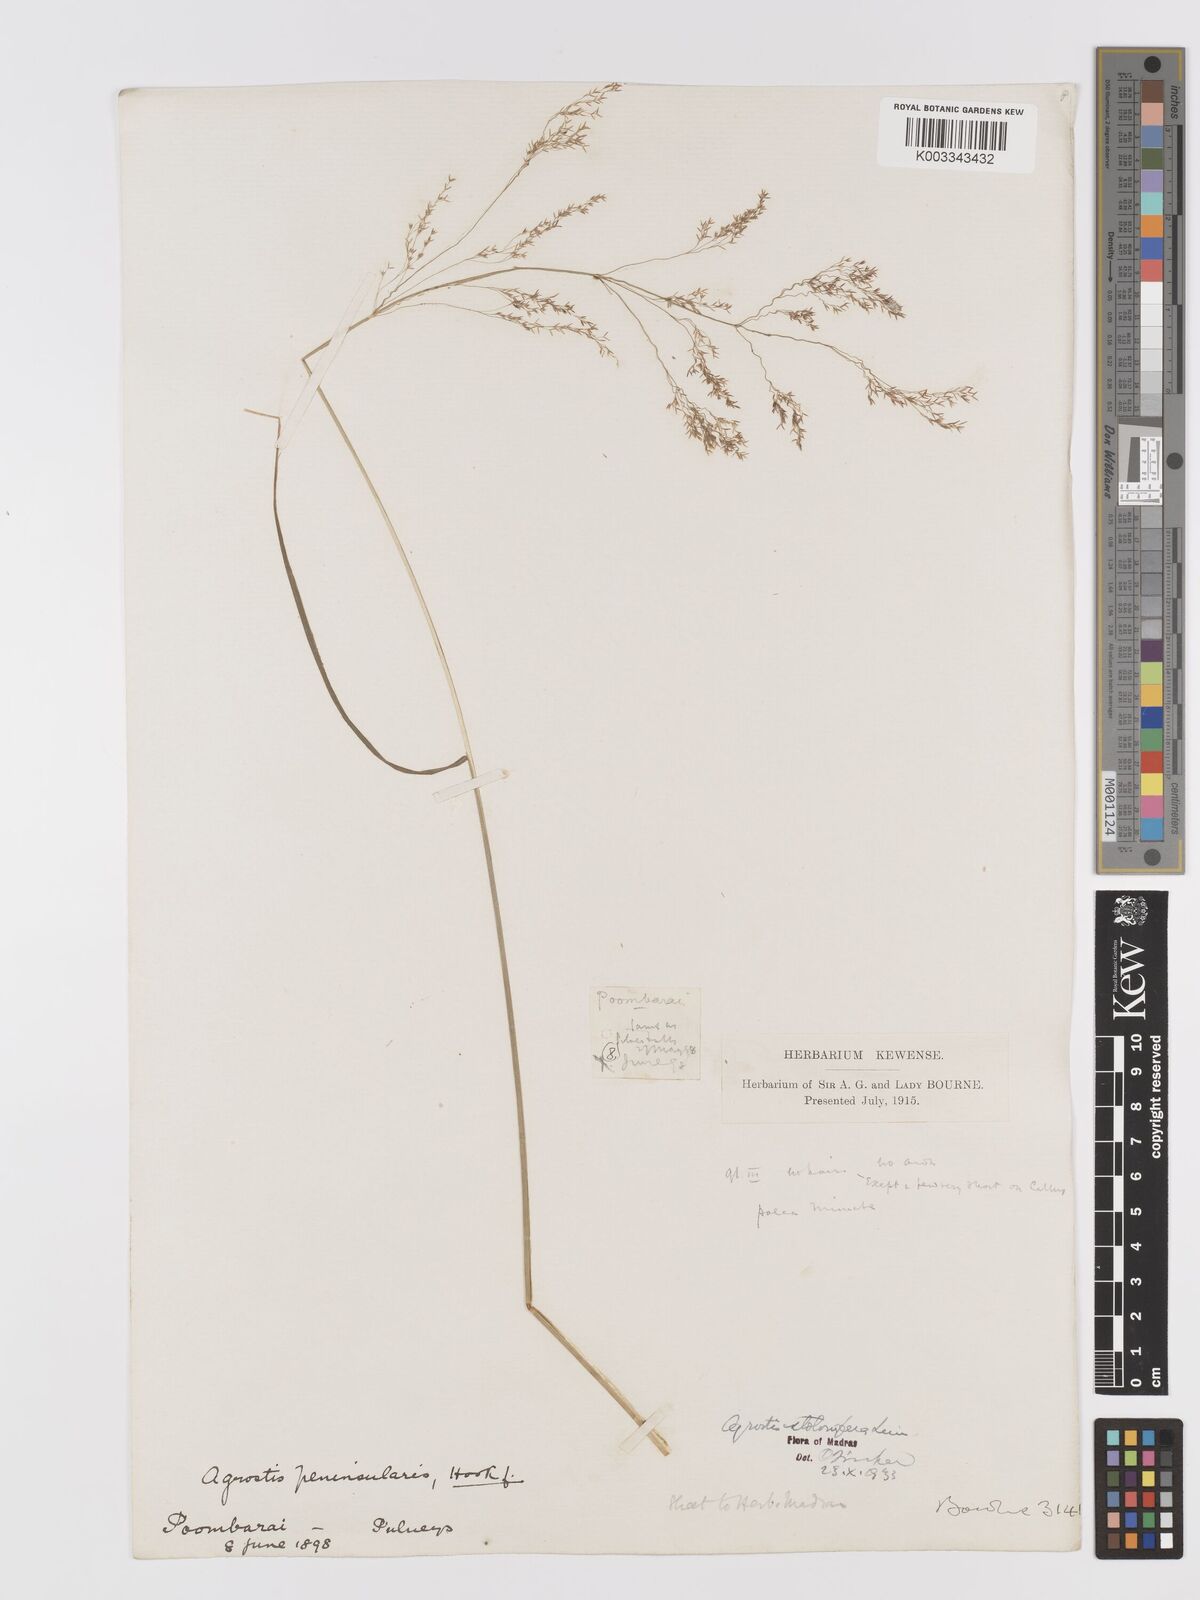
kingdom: Plantae
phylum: Tracheophyta
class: Liliopsida
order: Poales
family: Poaceae
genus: Agrostis
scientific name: Agrostis stolonifera
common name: Creeping bentgrass
